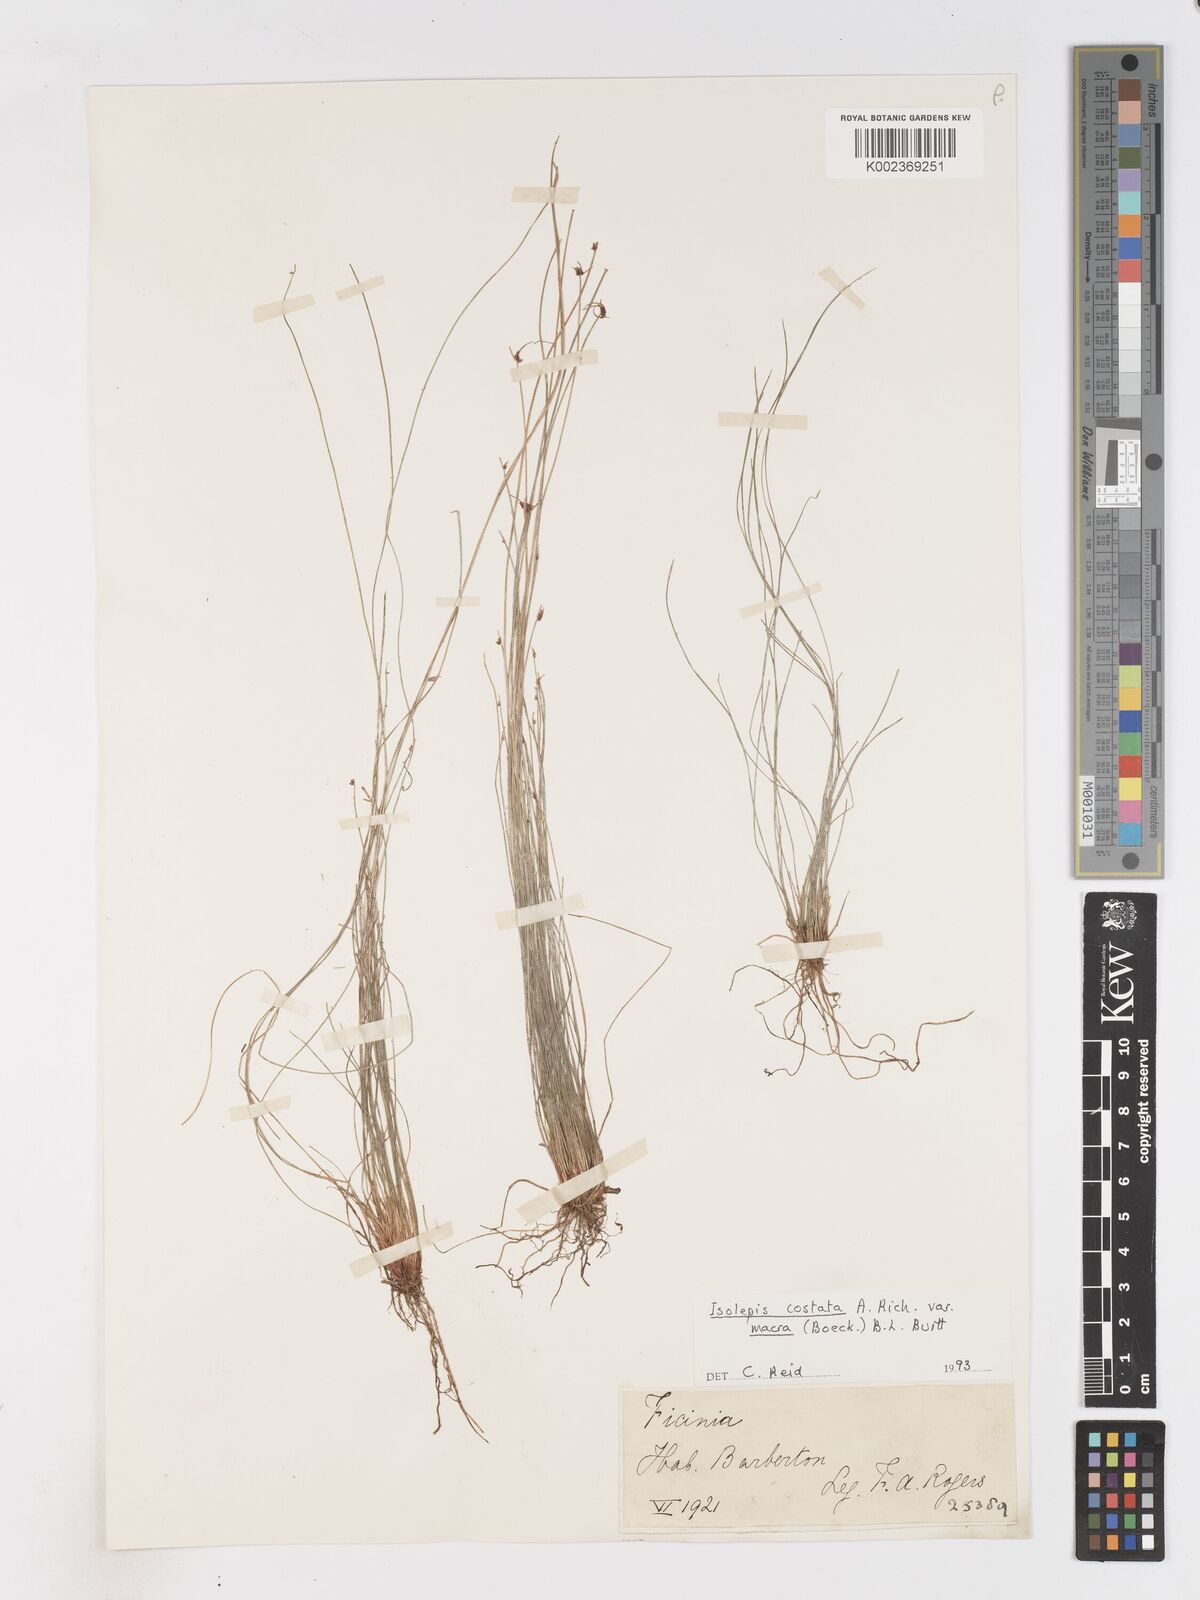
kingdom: Plantae
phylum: Tracheophyta
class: Liliopsida
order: Poales
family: Cyperaceae
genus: Isolepis
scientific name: Isolepis costata
